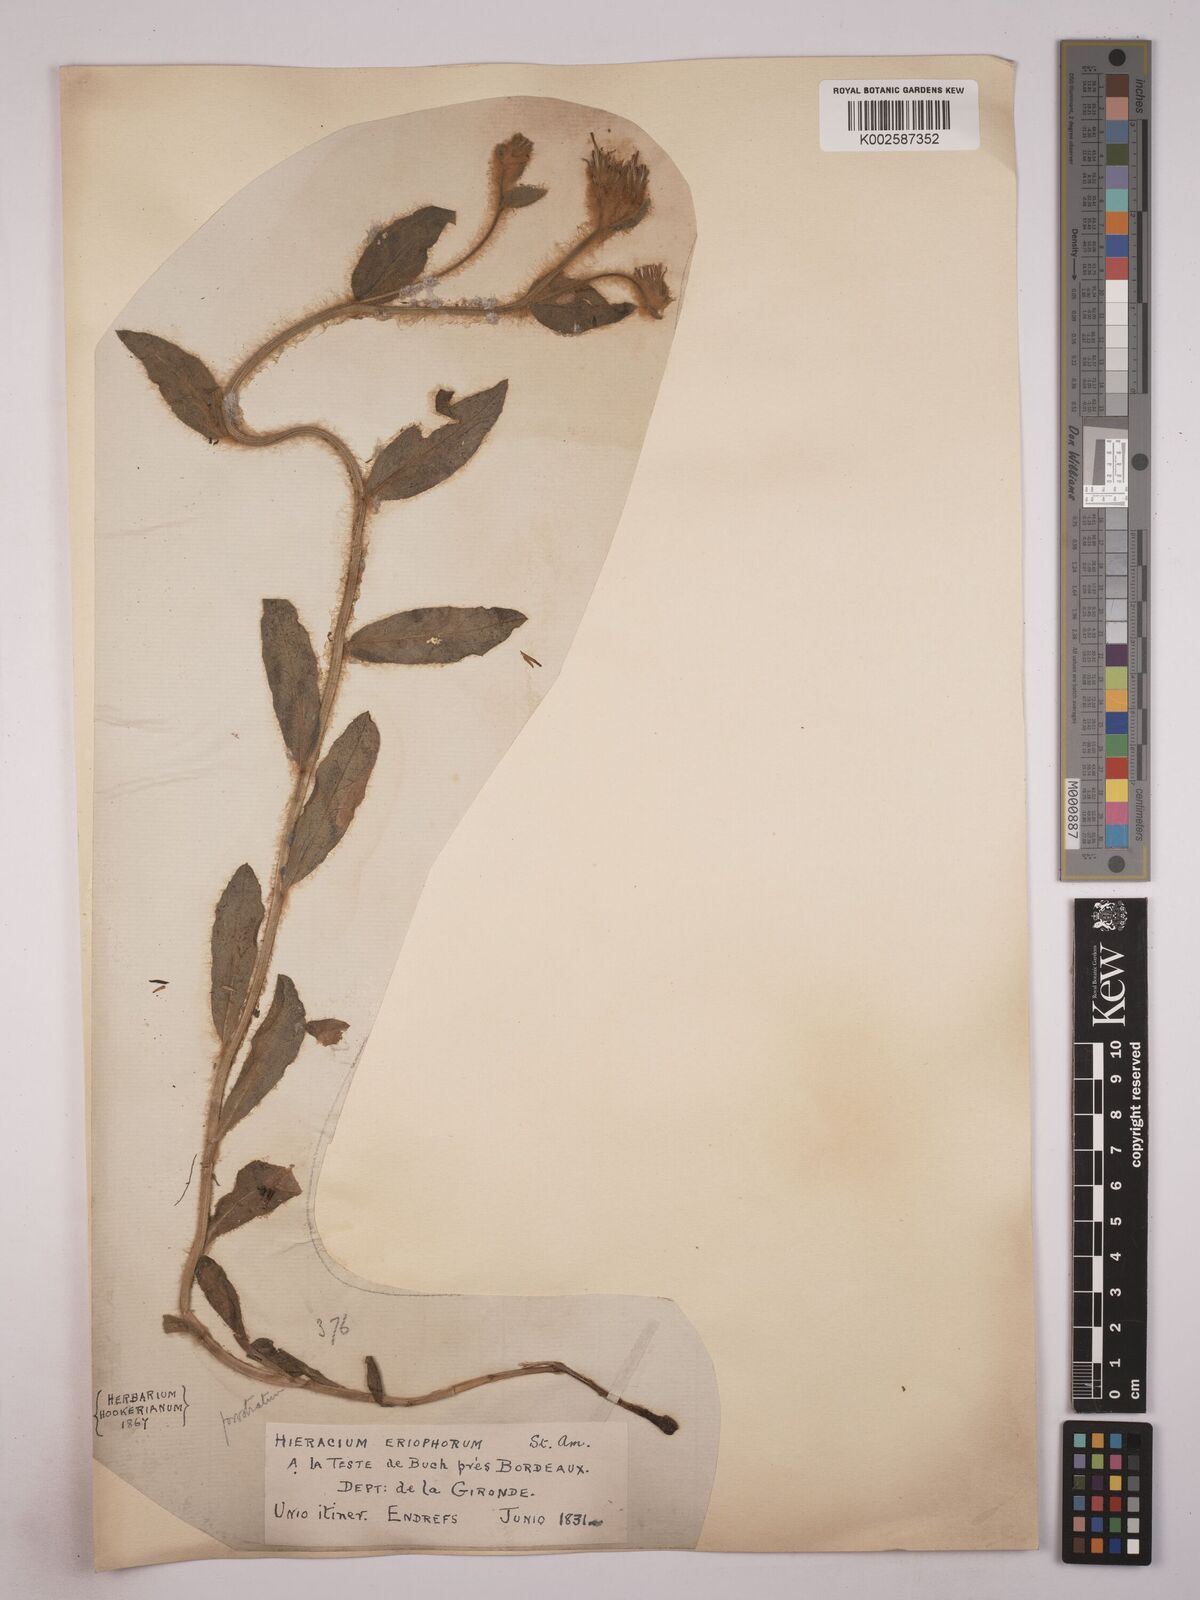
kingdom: Plantae
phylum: Tracheophyta
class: Magnoliopsida
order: Asterales
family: Asteraceae
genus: Hieracium
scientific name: Hieracium prostratum
